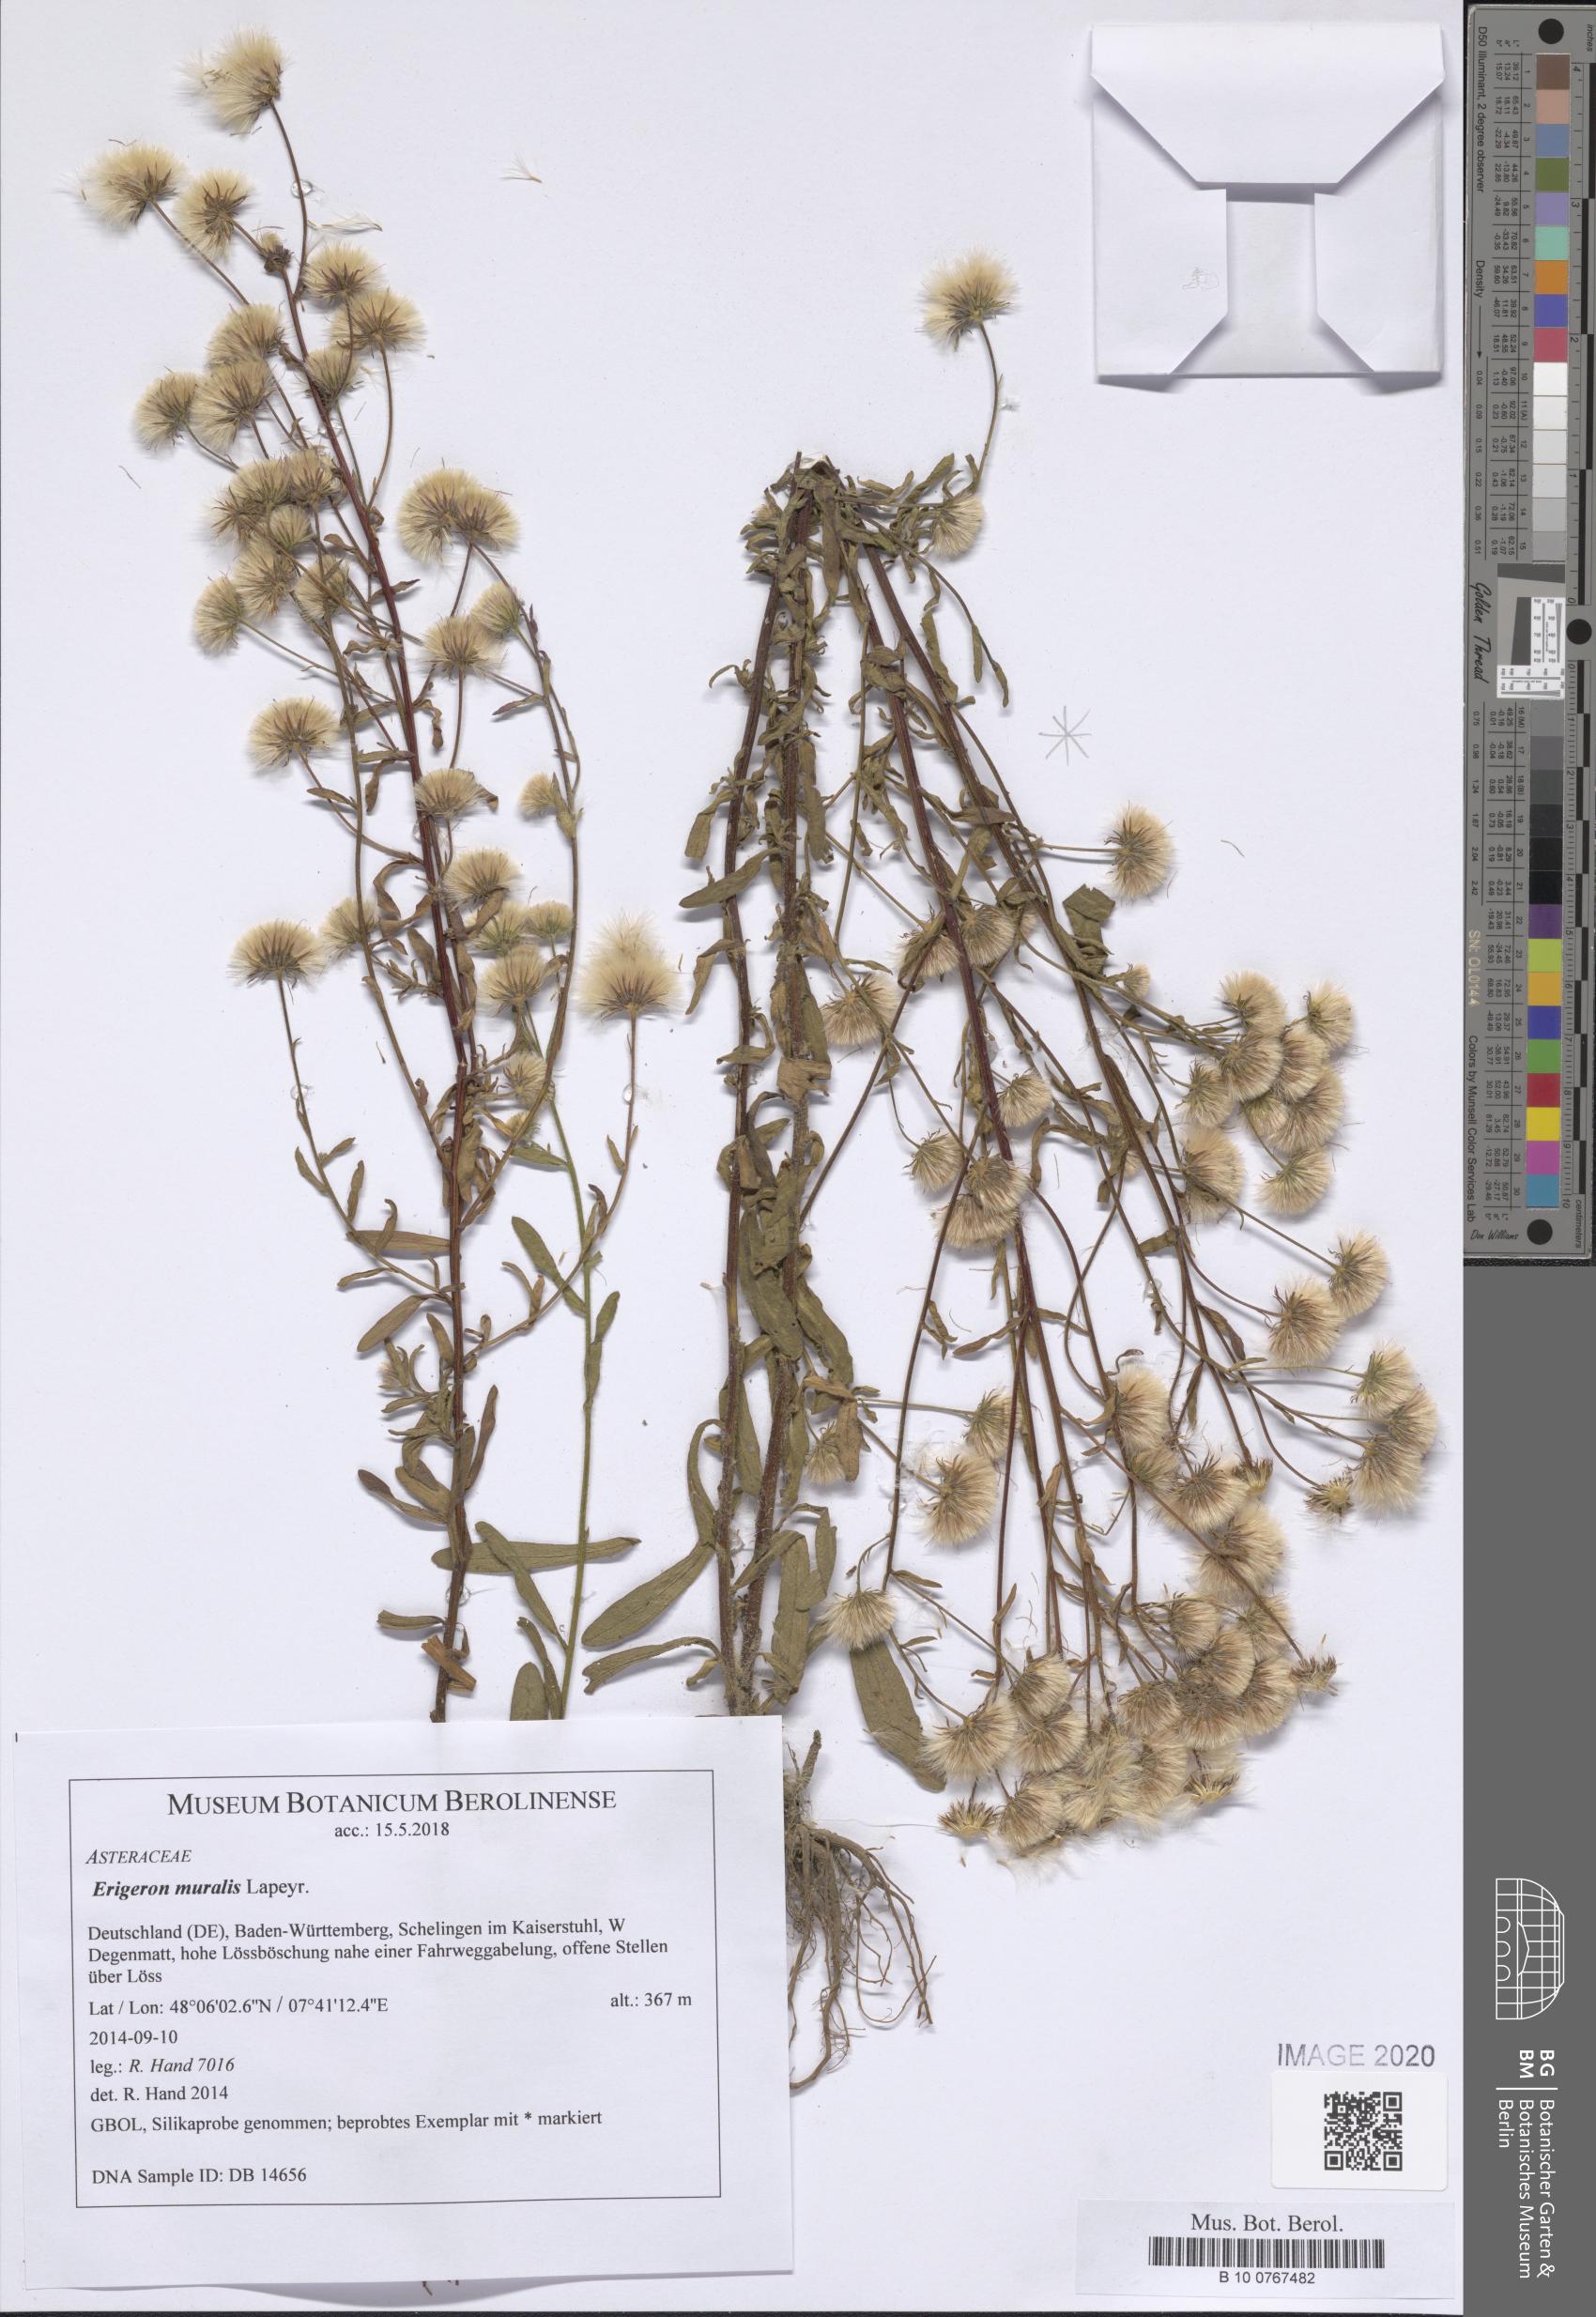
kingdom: Plantae
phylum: Tracheophyta
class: Magnoliopsida
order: Asterales
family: Asteraceae
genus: Erigeron
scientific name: Erigeron muralis
